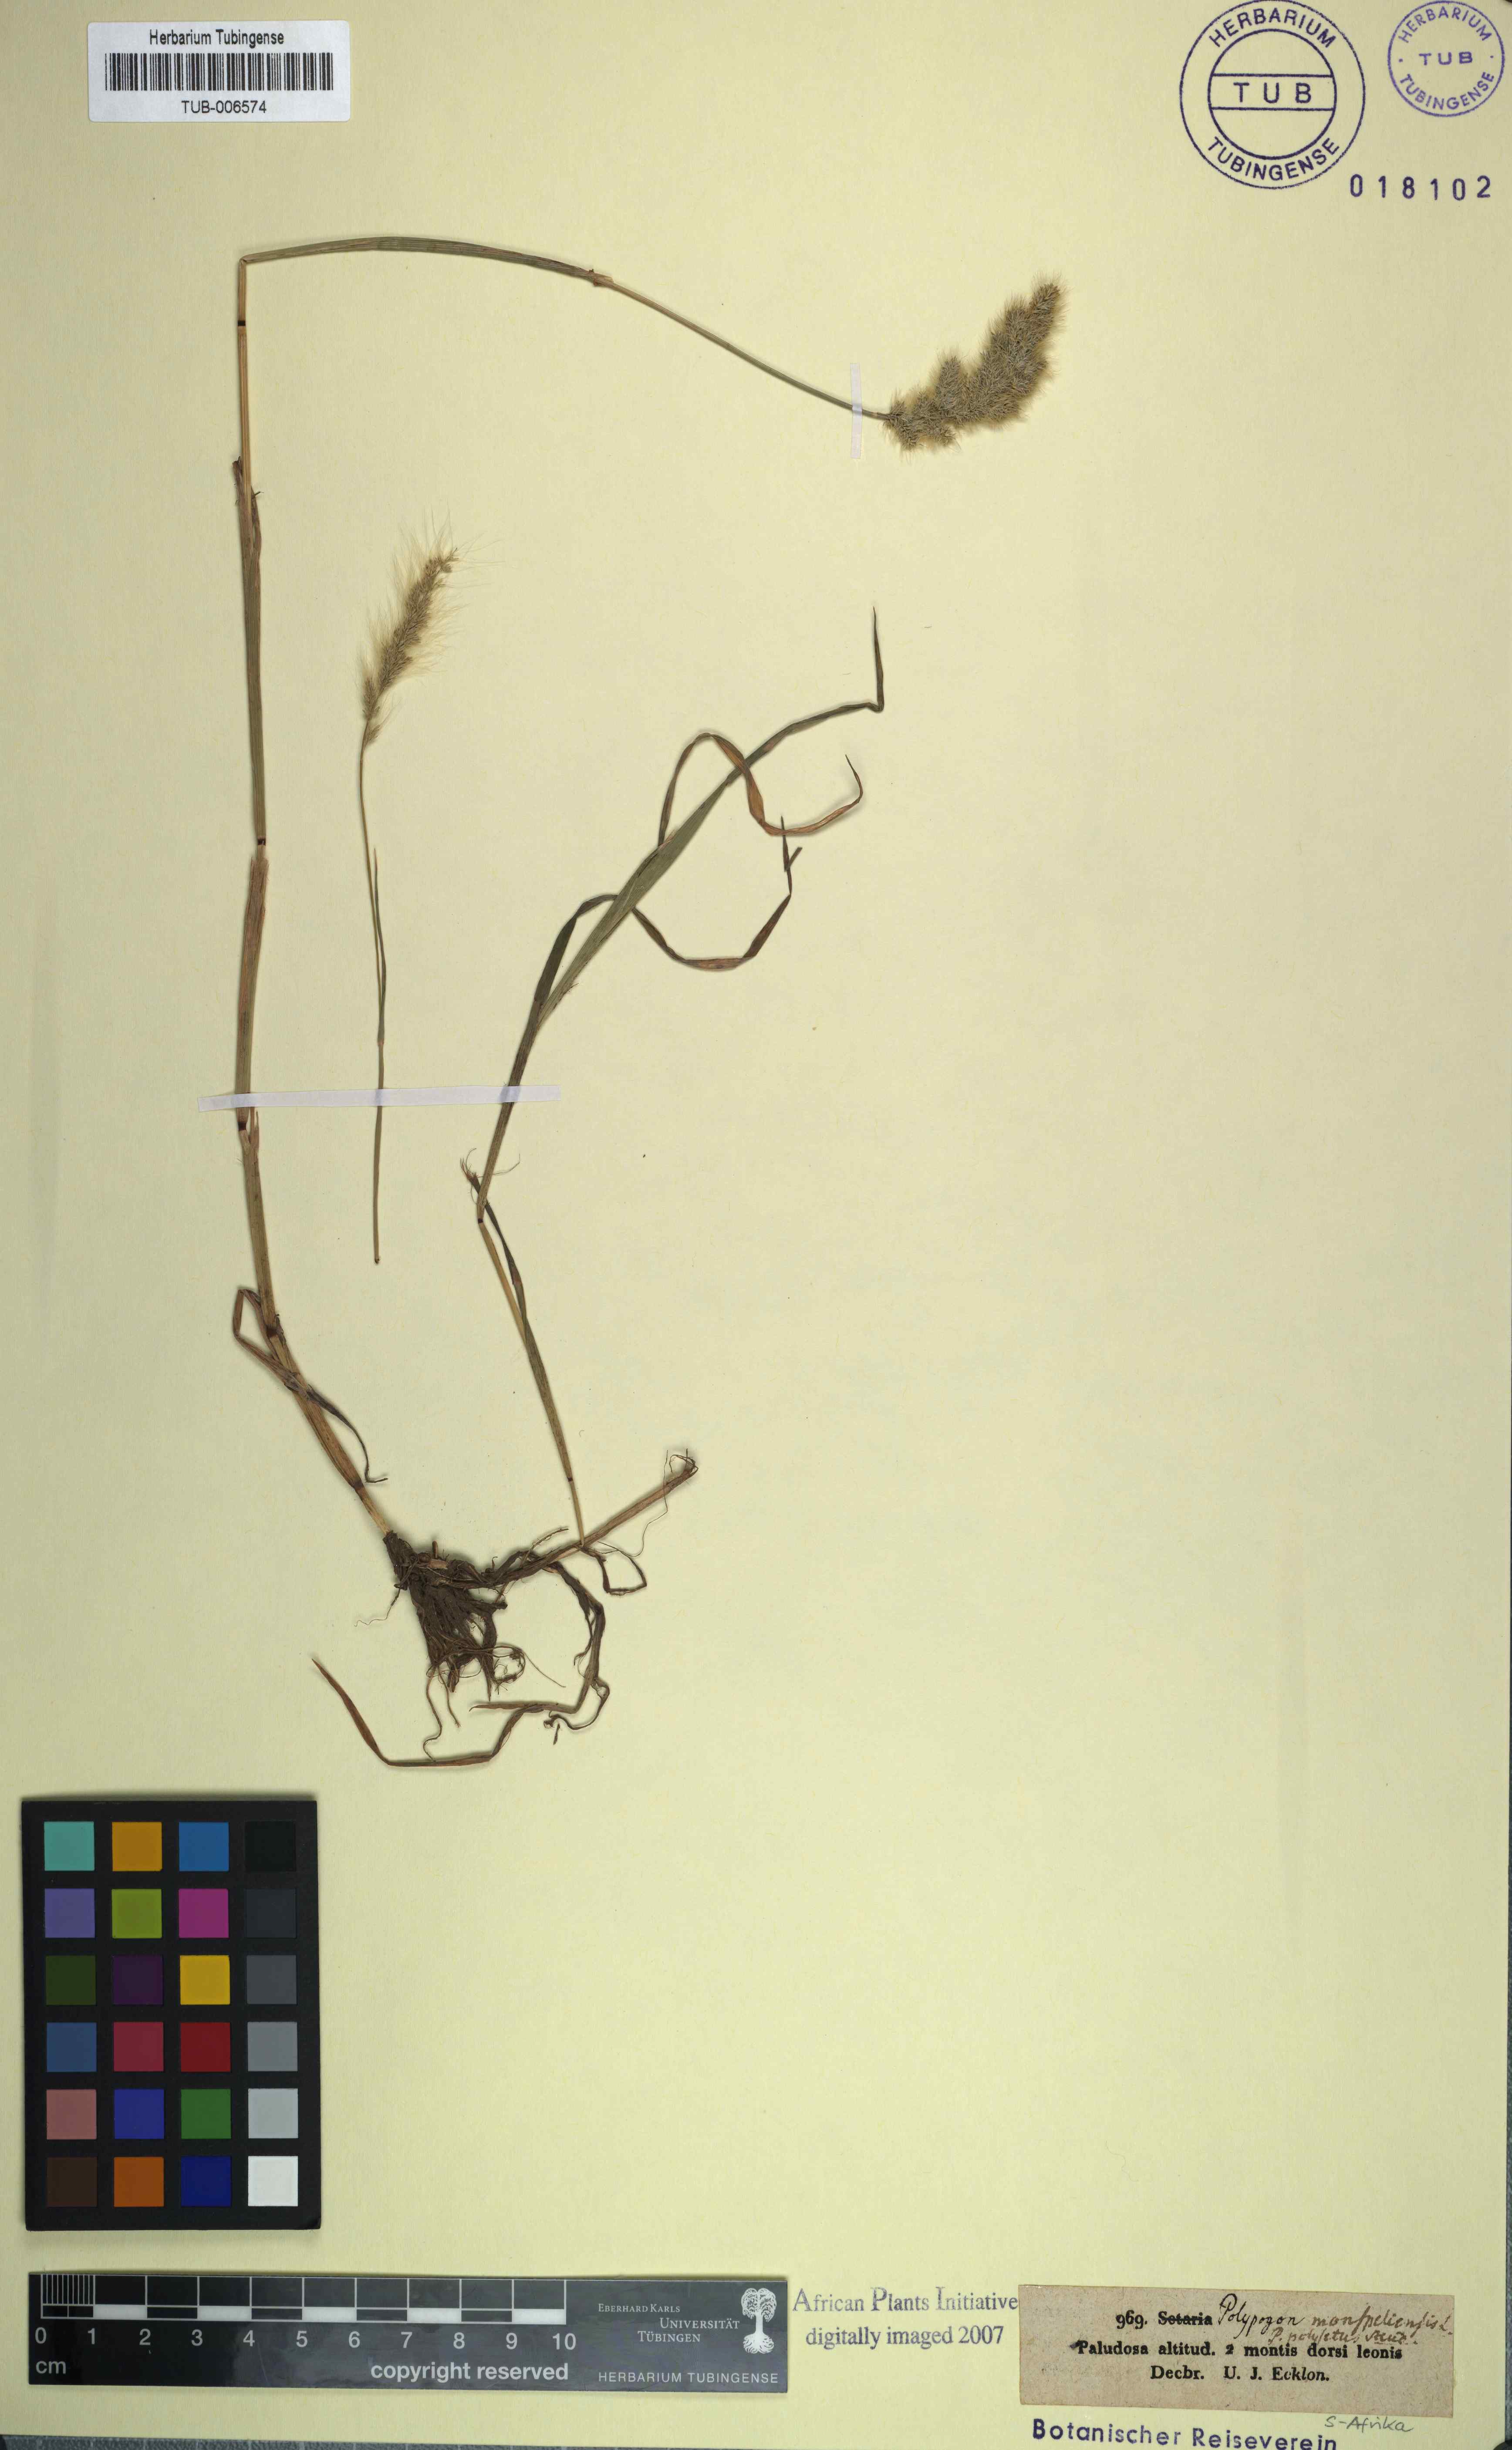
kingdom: Plantae
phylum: Tracheophyta
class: Liliopsida
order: Poales
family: Poaceae
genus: Polypogon
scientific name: Polypogon monspeliensis
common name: Annual rabbitsfoot grass
